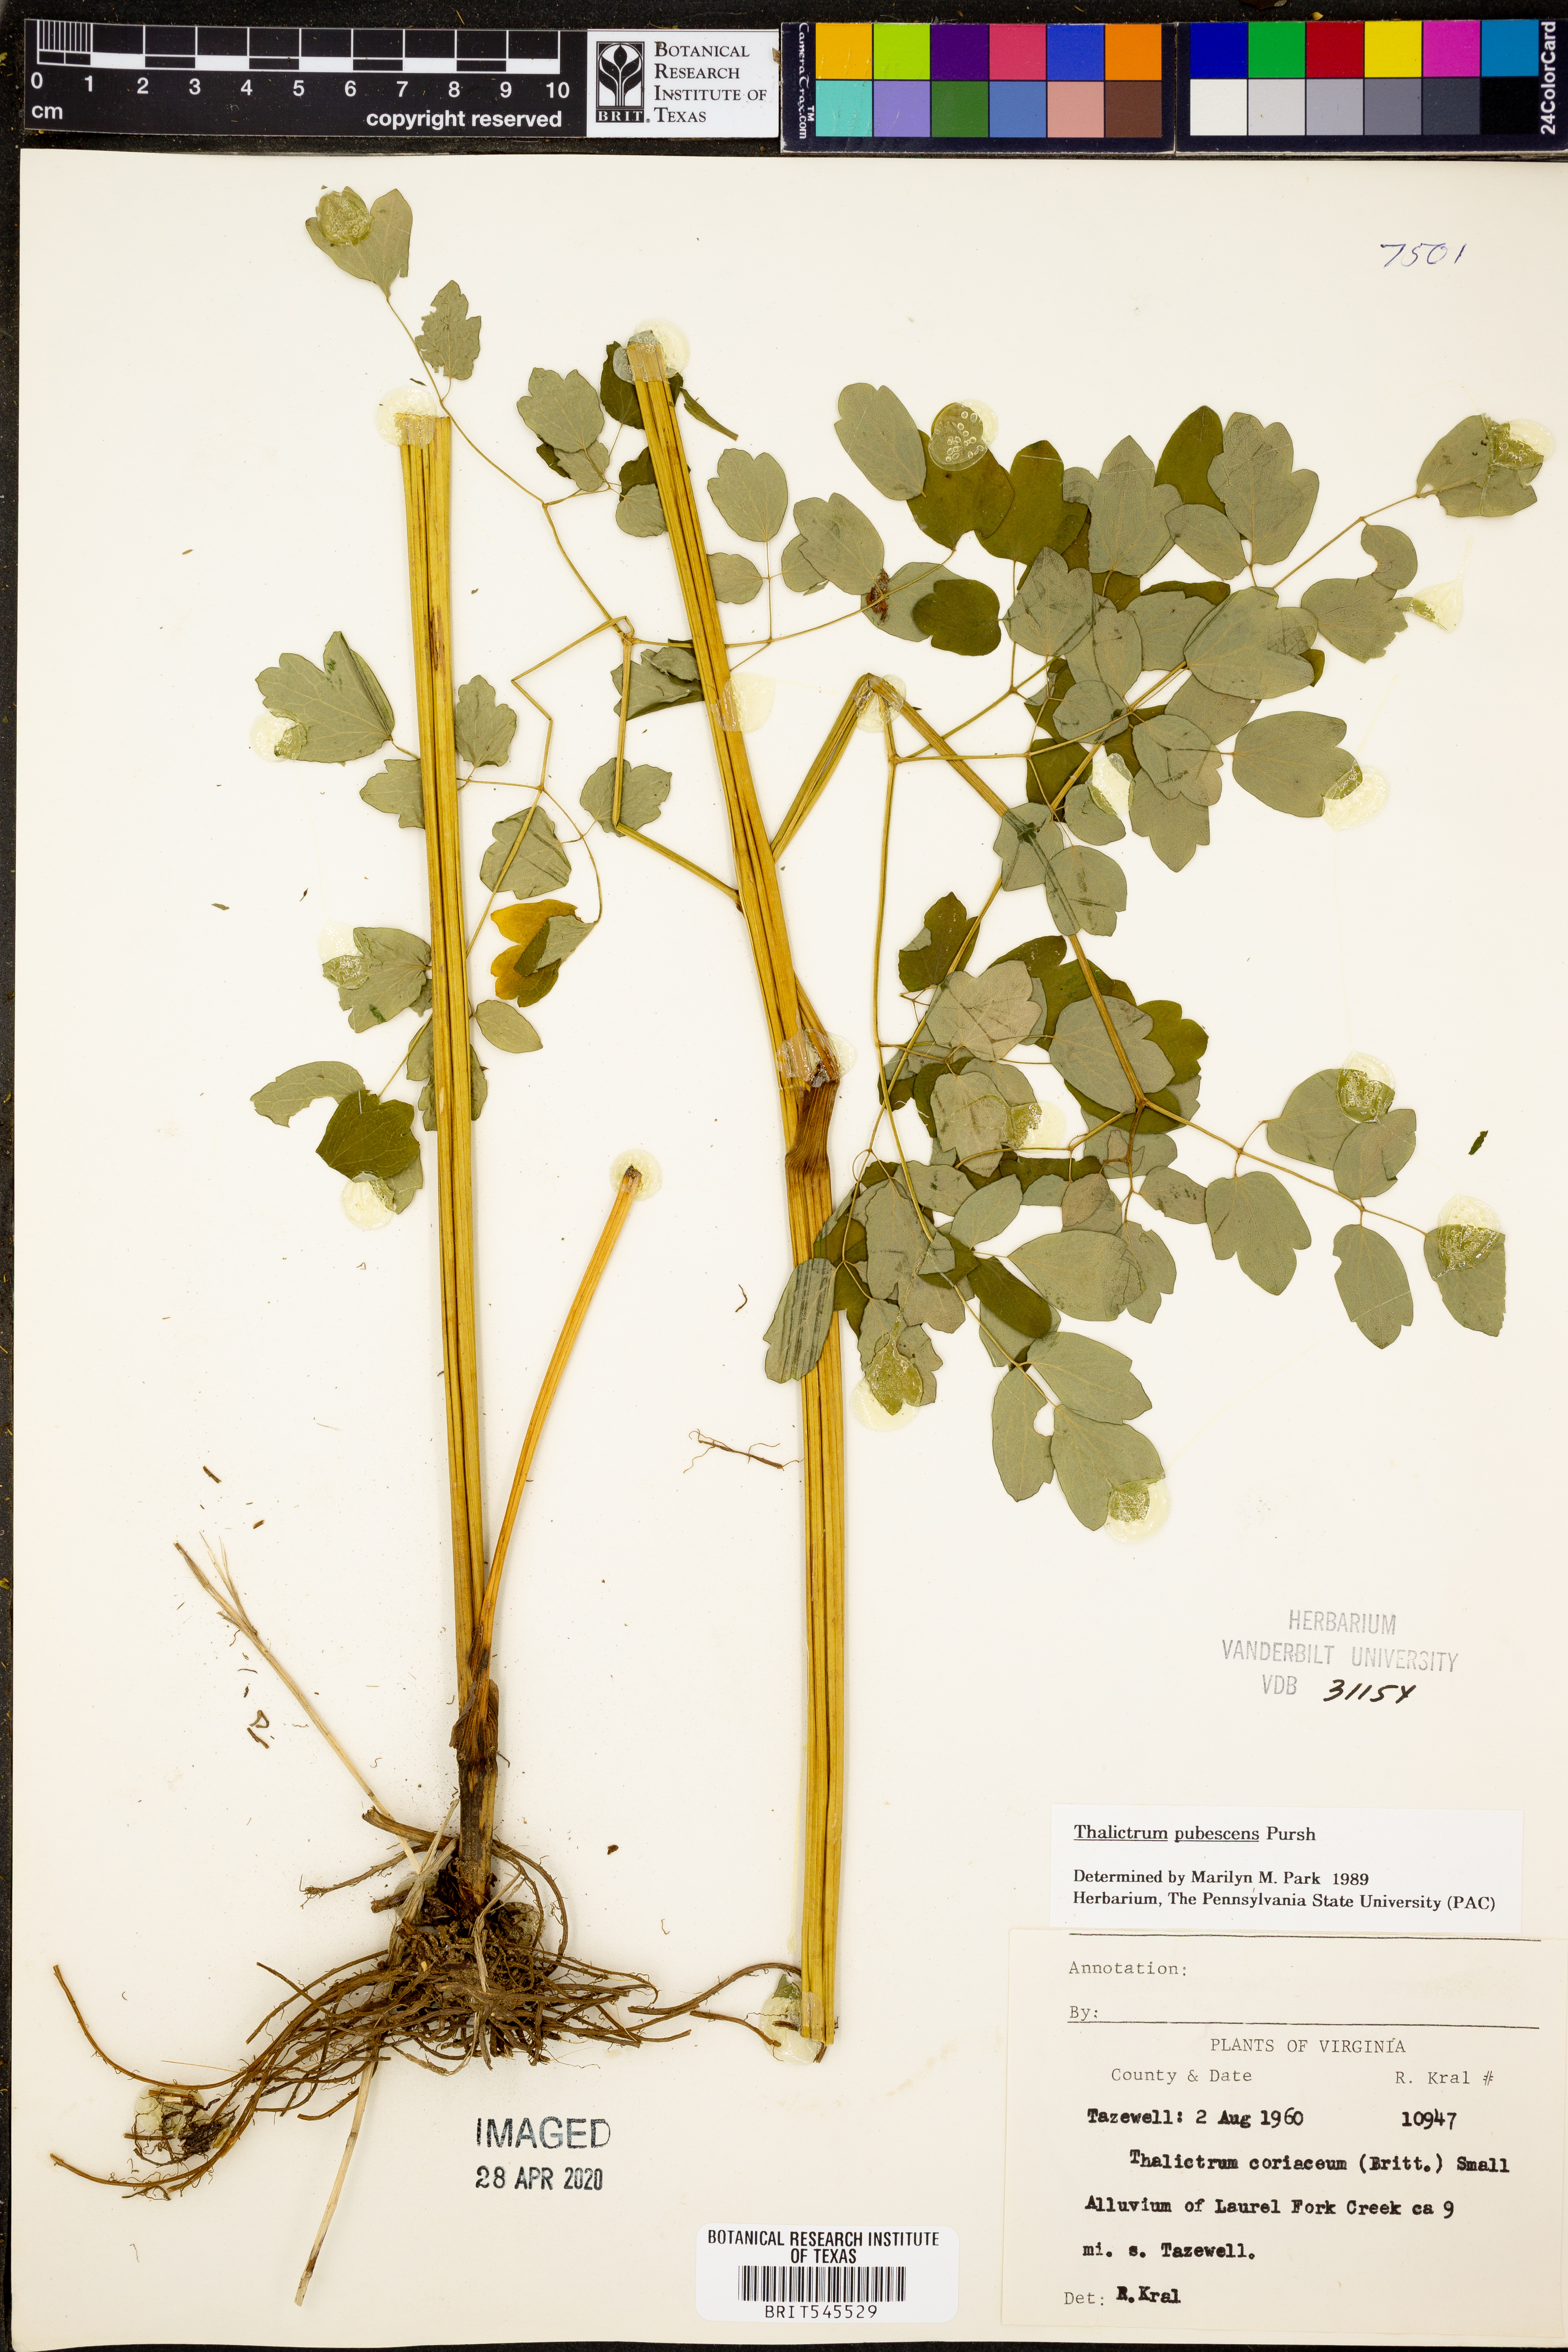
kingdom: Plantae
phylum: Tracheophyta
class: Magnoliopsida
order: Ranunculales
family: Ranunculaceae
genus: Thalictrum
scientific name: Thalictrum pubescens
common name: King-of-the-meadow
